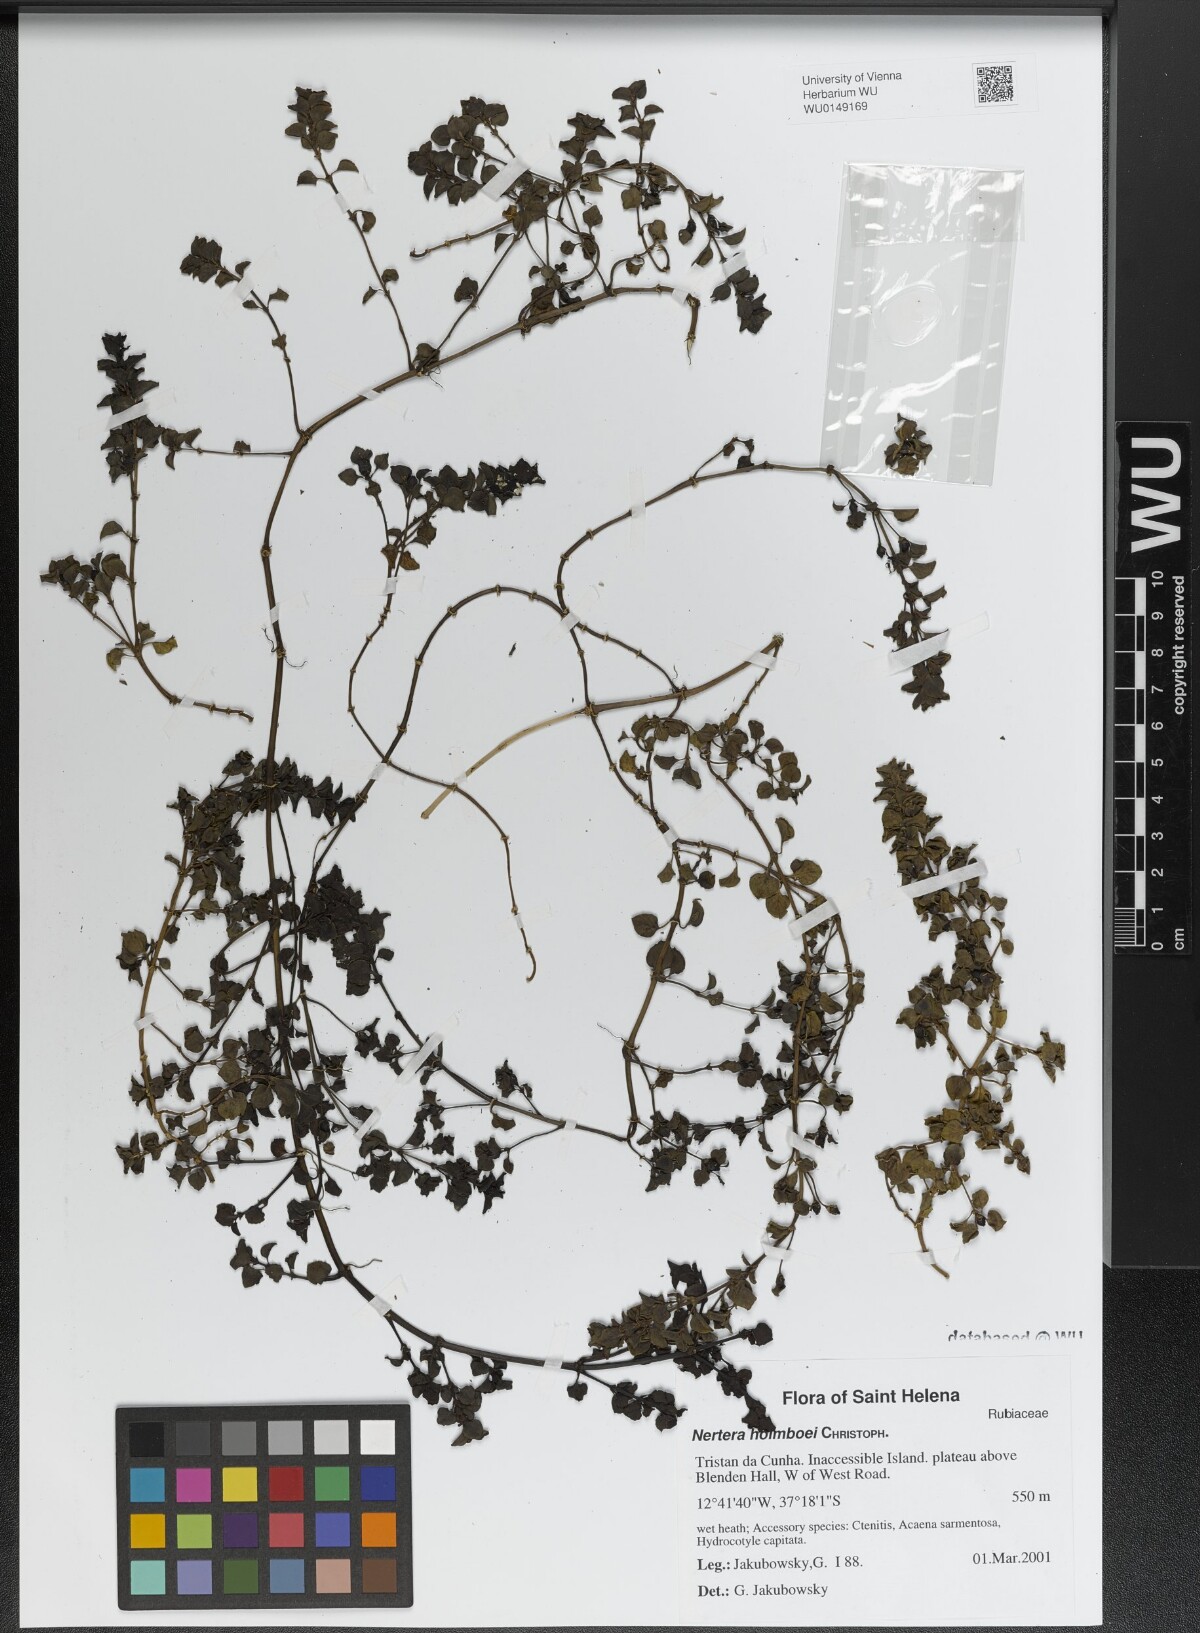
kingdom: Plantae
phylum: Tracheophyta
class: Magnoliopsida
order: Gentianales
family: Rubiaceae
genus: Nertera
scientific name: Nertera holmboei
